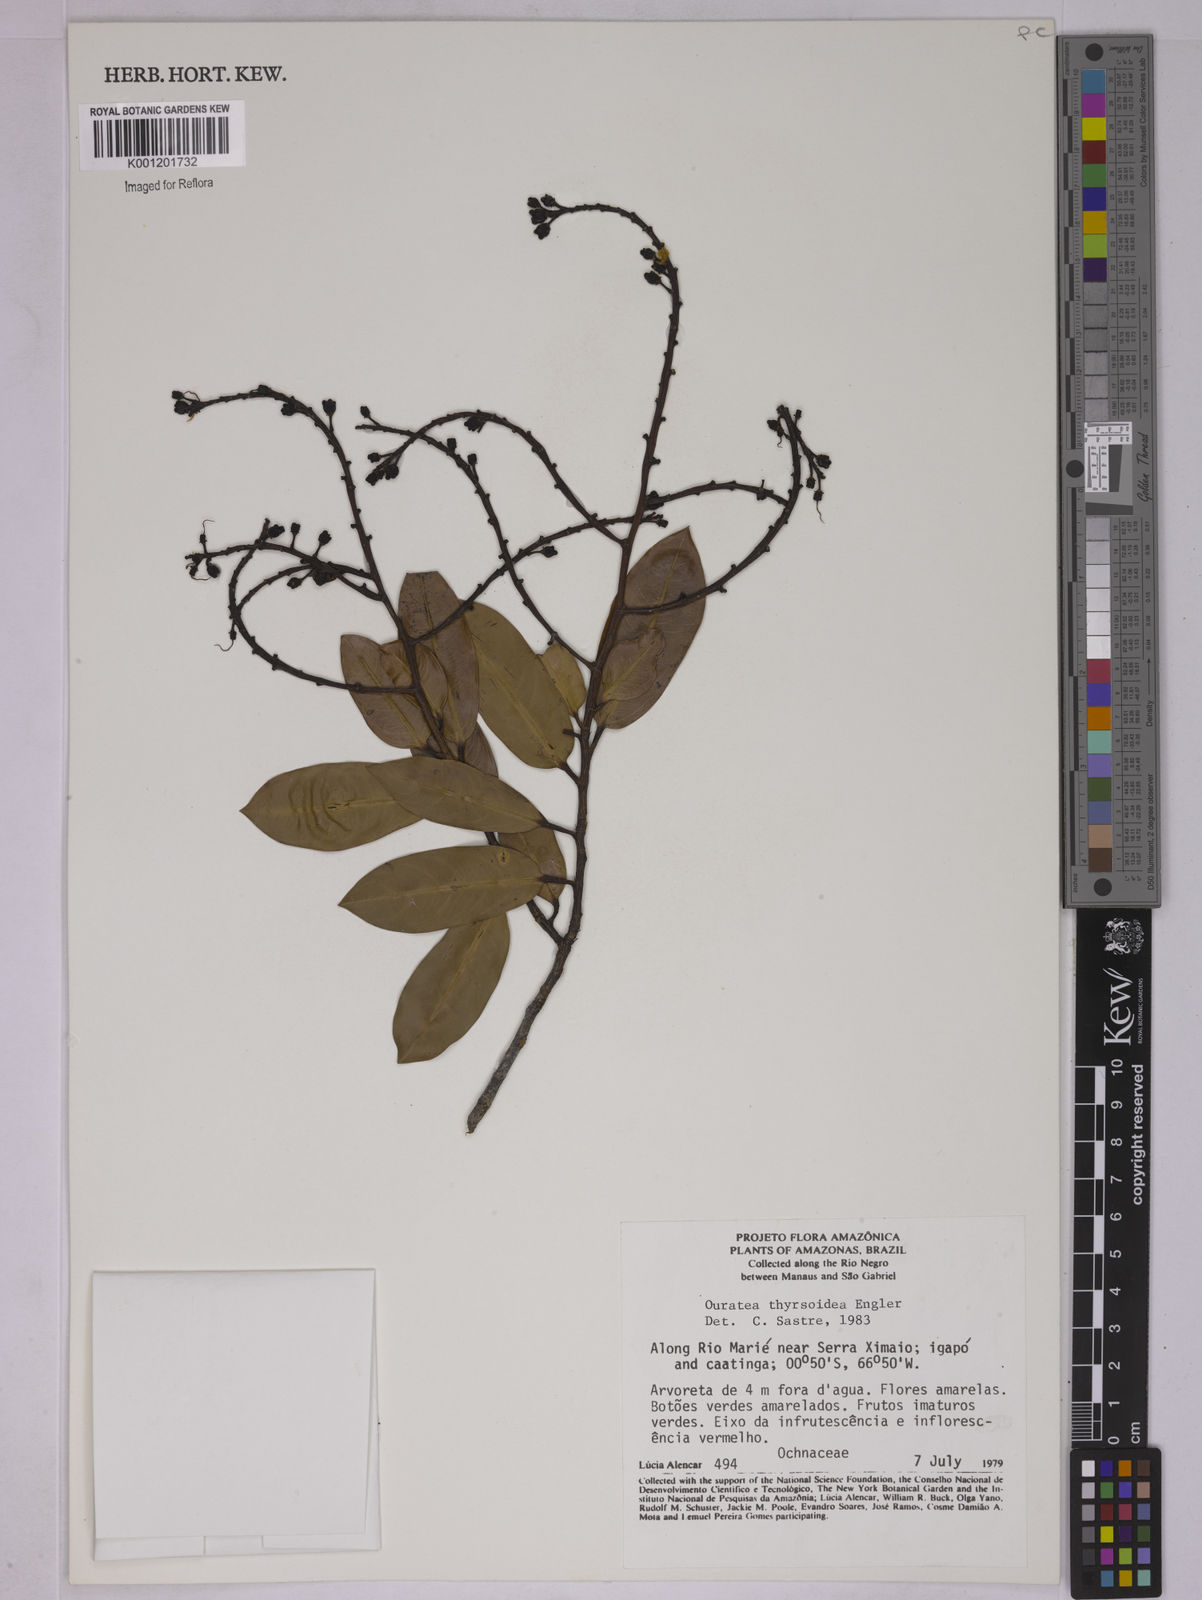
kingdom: Plantae
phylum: Tracheophyta
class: Magnoliopsida
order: Malpighiales
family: Ochnaceae
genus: Ouratea
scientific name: Ouratea thyrsoidea
